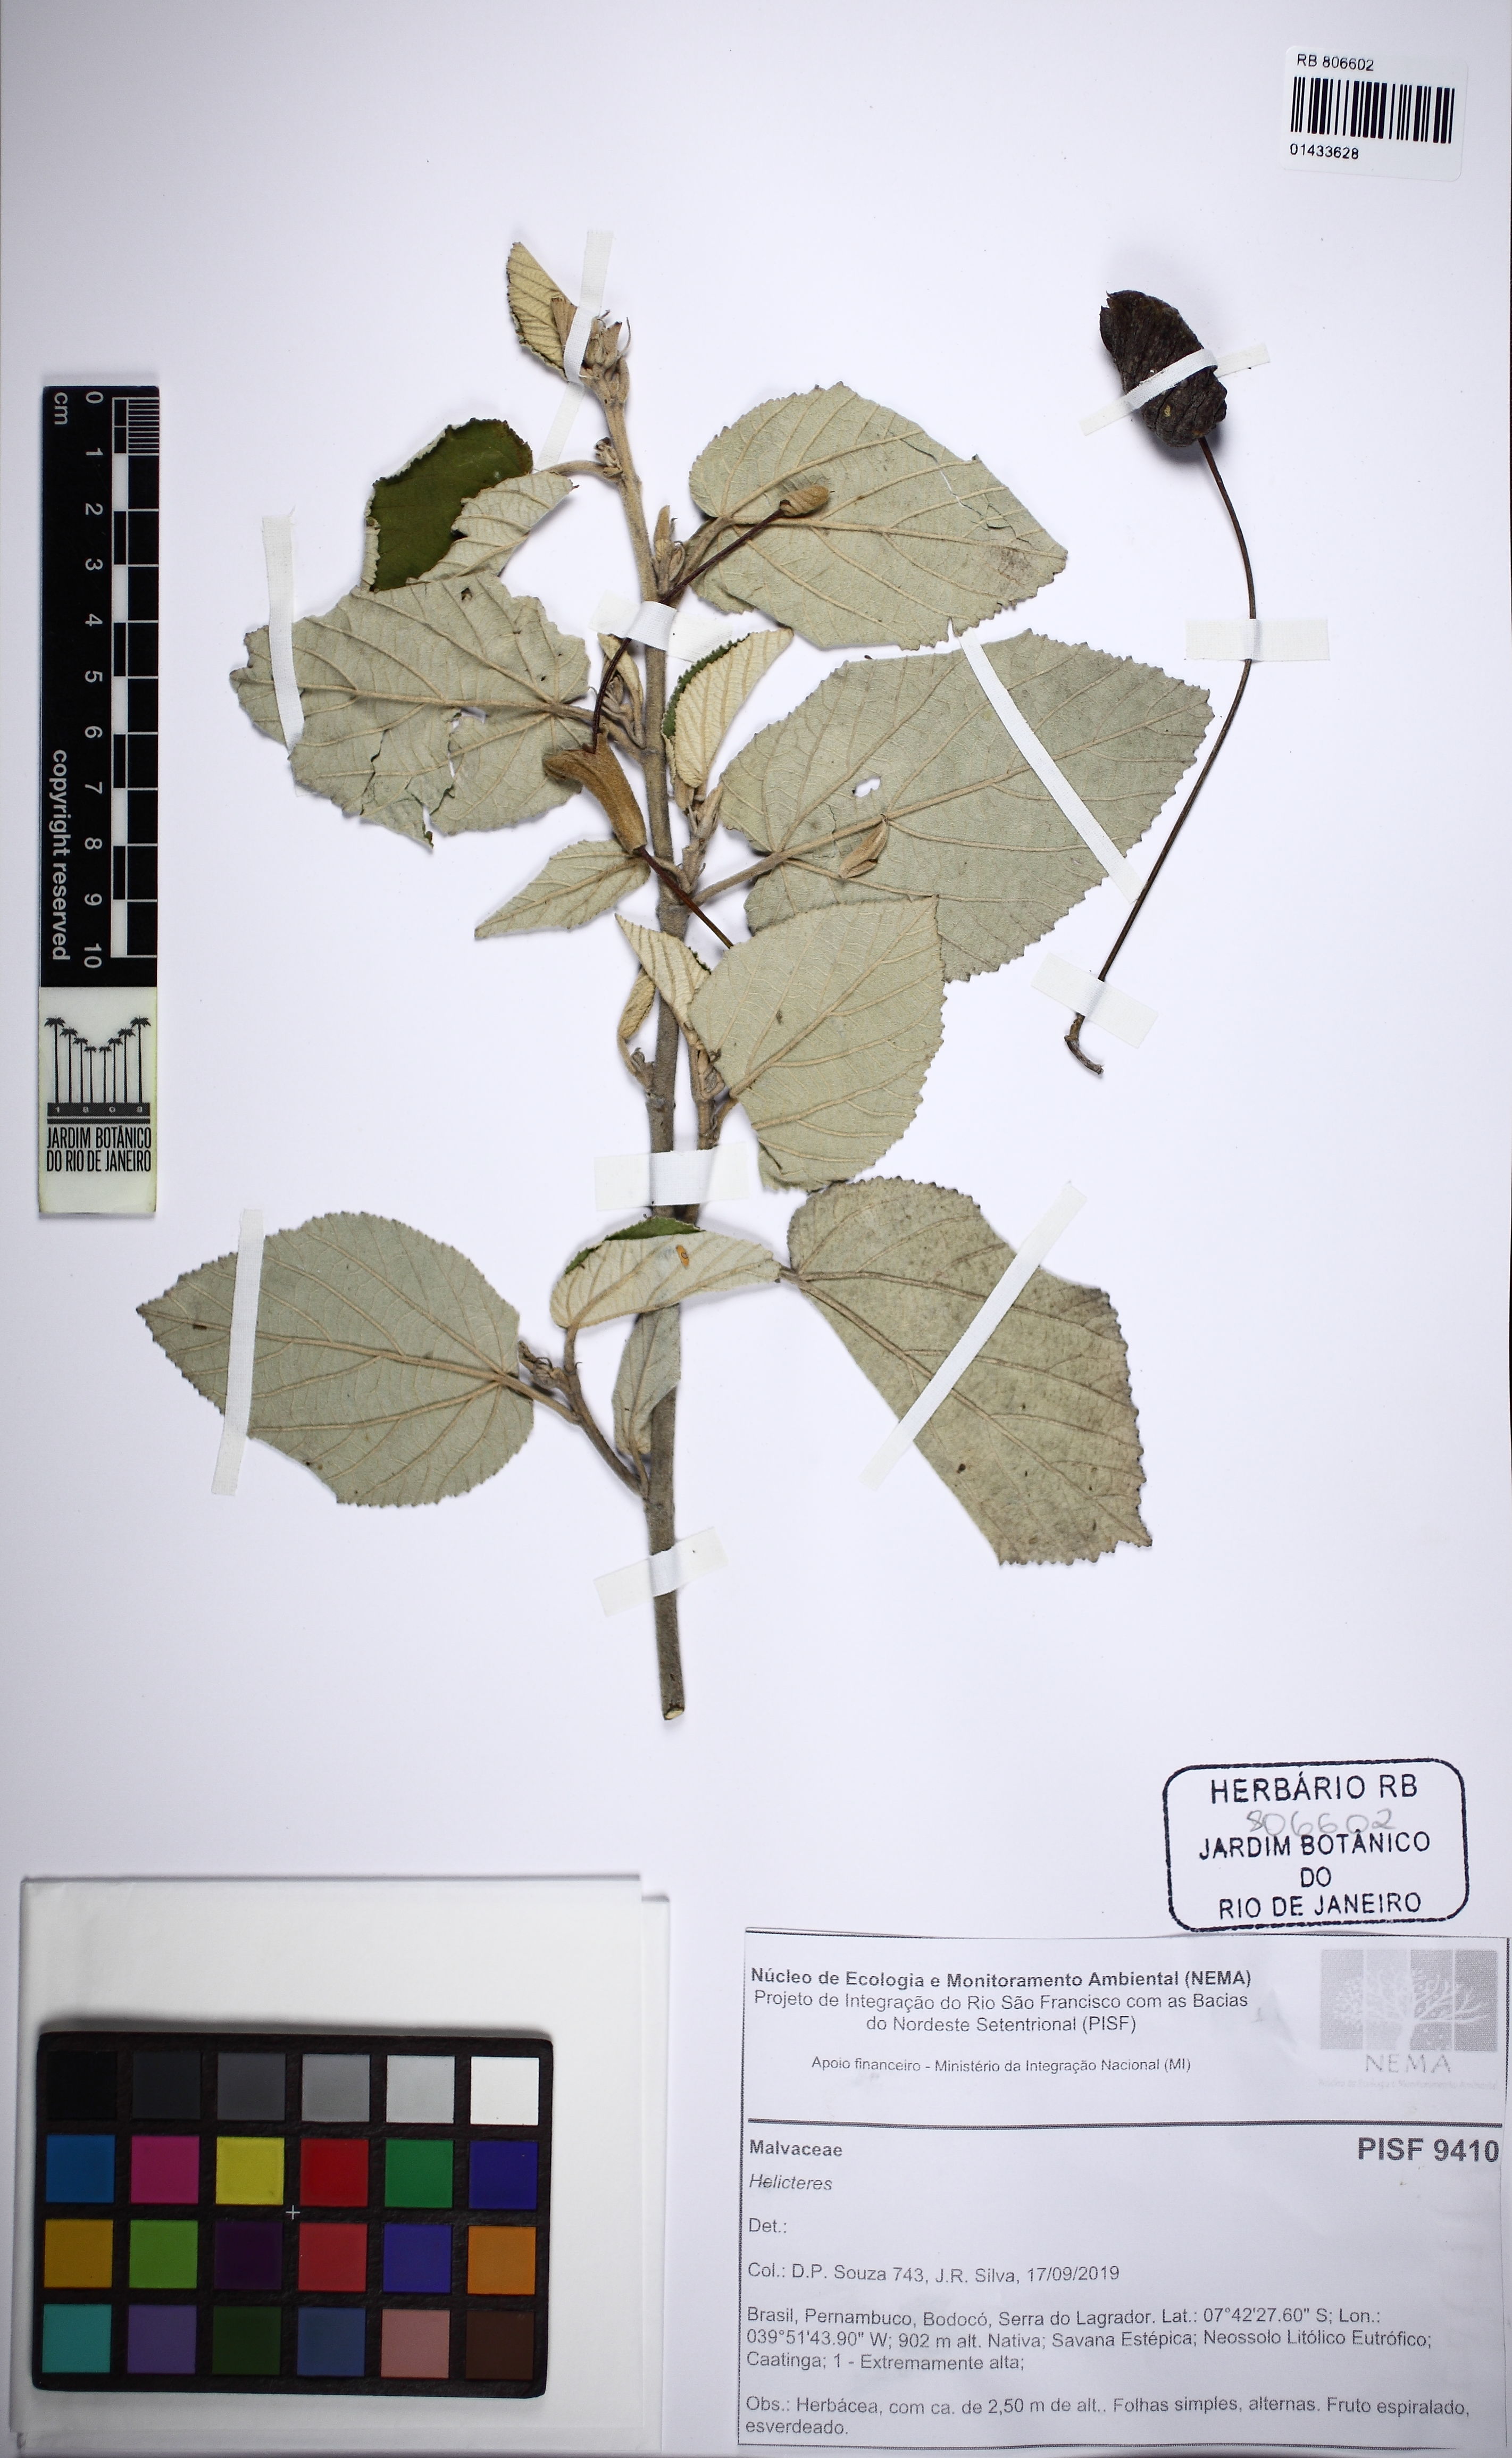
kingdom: Plantae
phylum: Tracheophyta
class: Magnoliopsida
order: Malvales
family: Malvaceae
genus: Helicteres
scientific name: Helicteres
